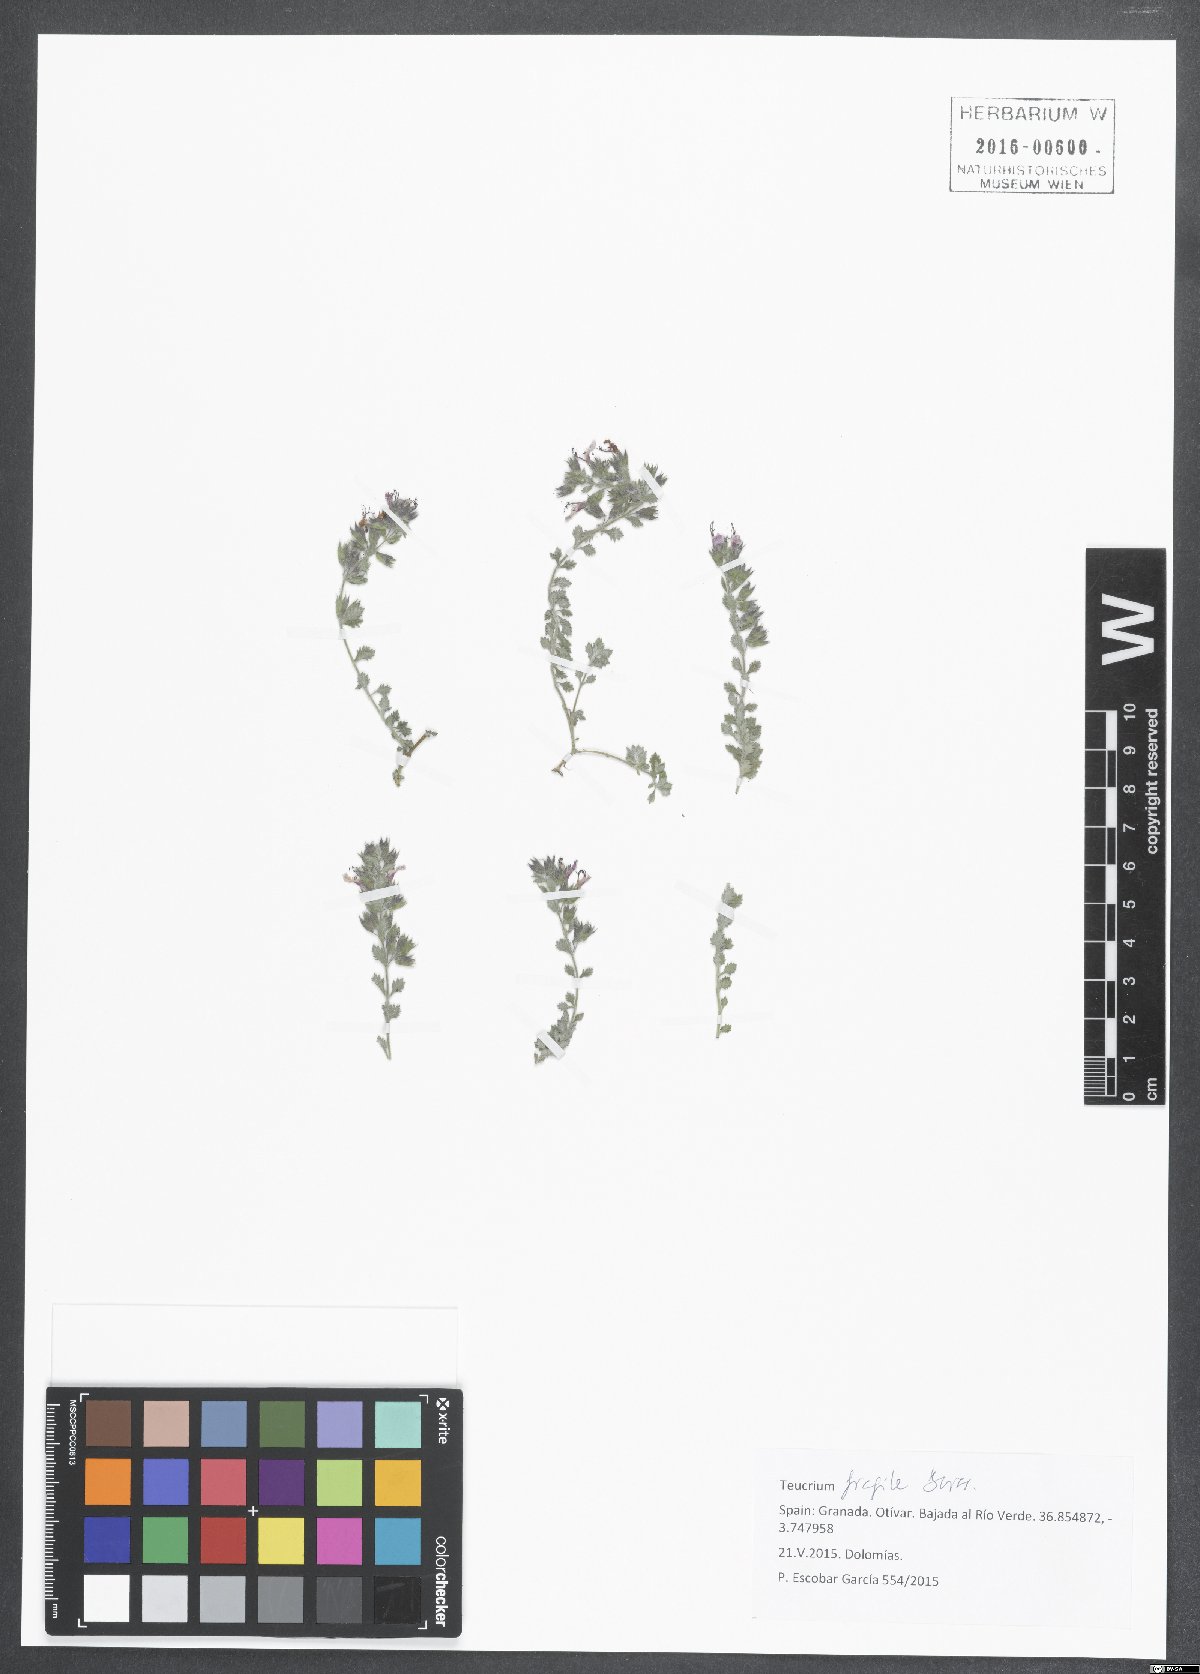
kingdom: Plantae
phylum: Tracheophyta
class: Magnoliopsida
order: Lamiales
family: Lamiaceae
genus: Teucrium
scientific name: Teucrium fragile
